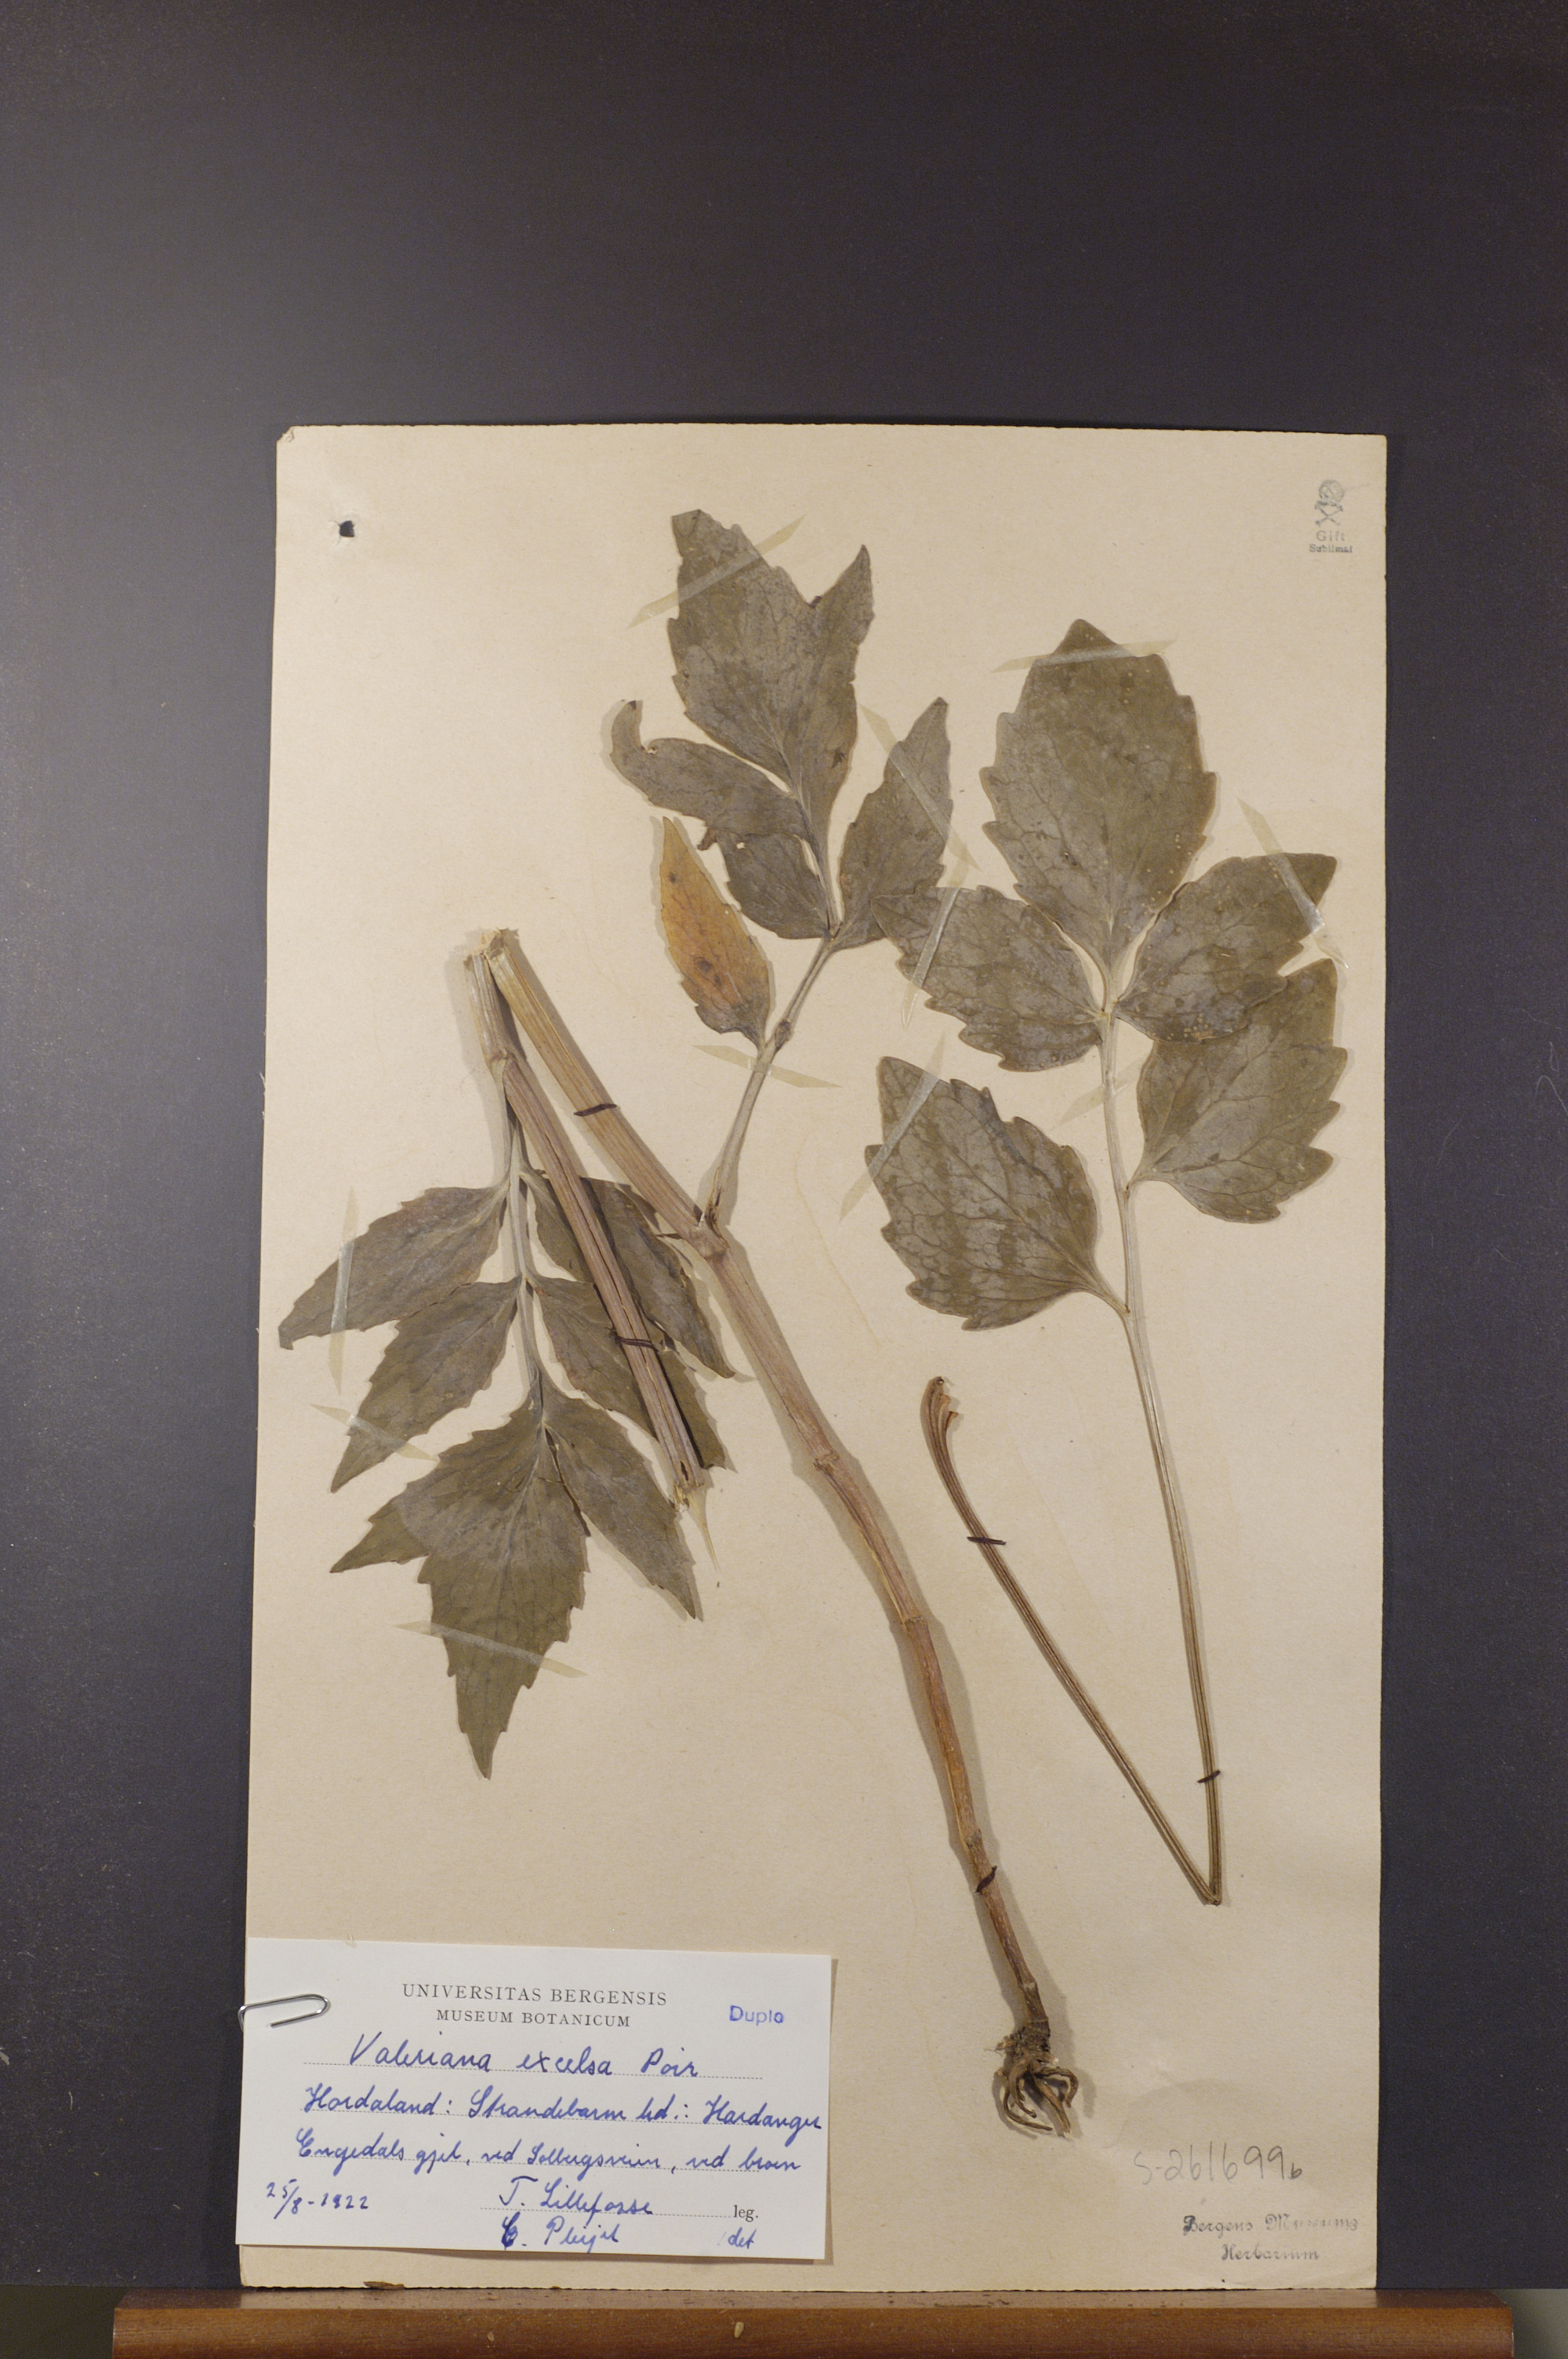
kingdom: Plantae
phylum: Tracheophyta
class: Magnoliopsida
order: Dipsacales
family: Caprifoliaceae
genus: Valeriana
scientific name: Valeriana sambucifolia
